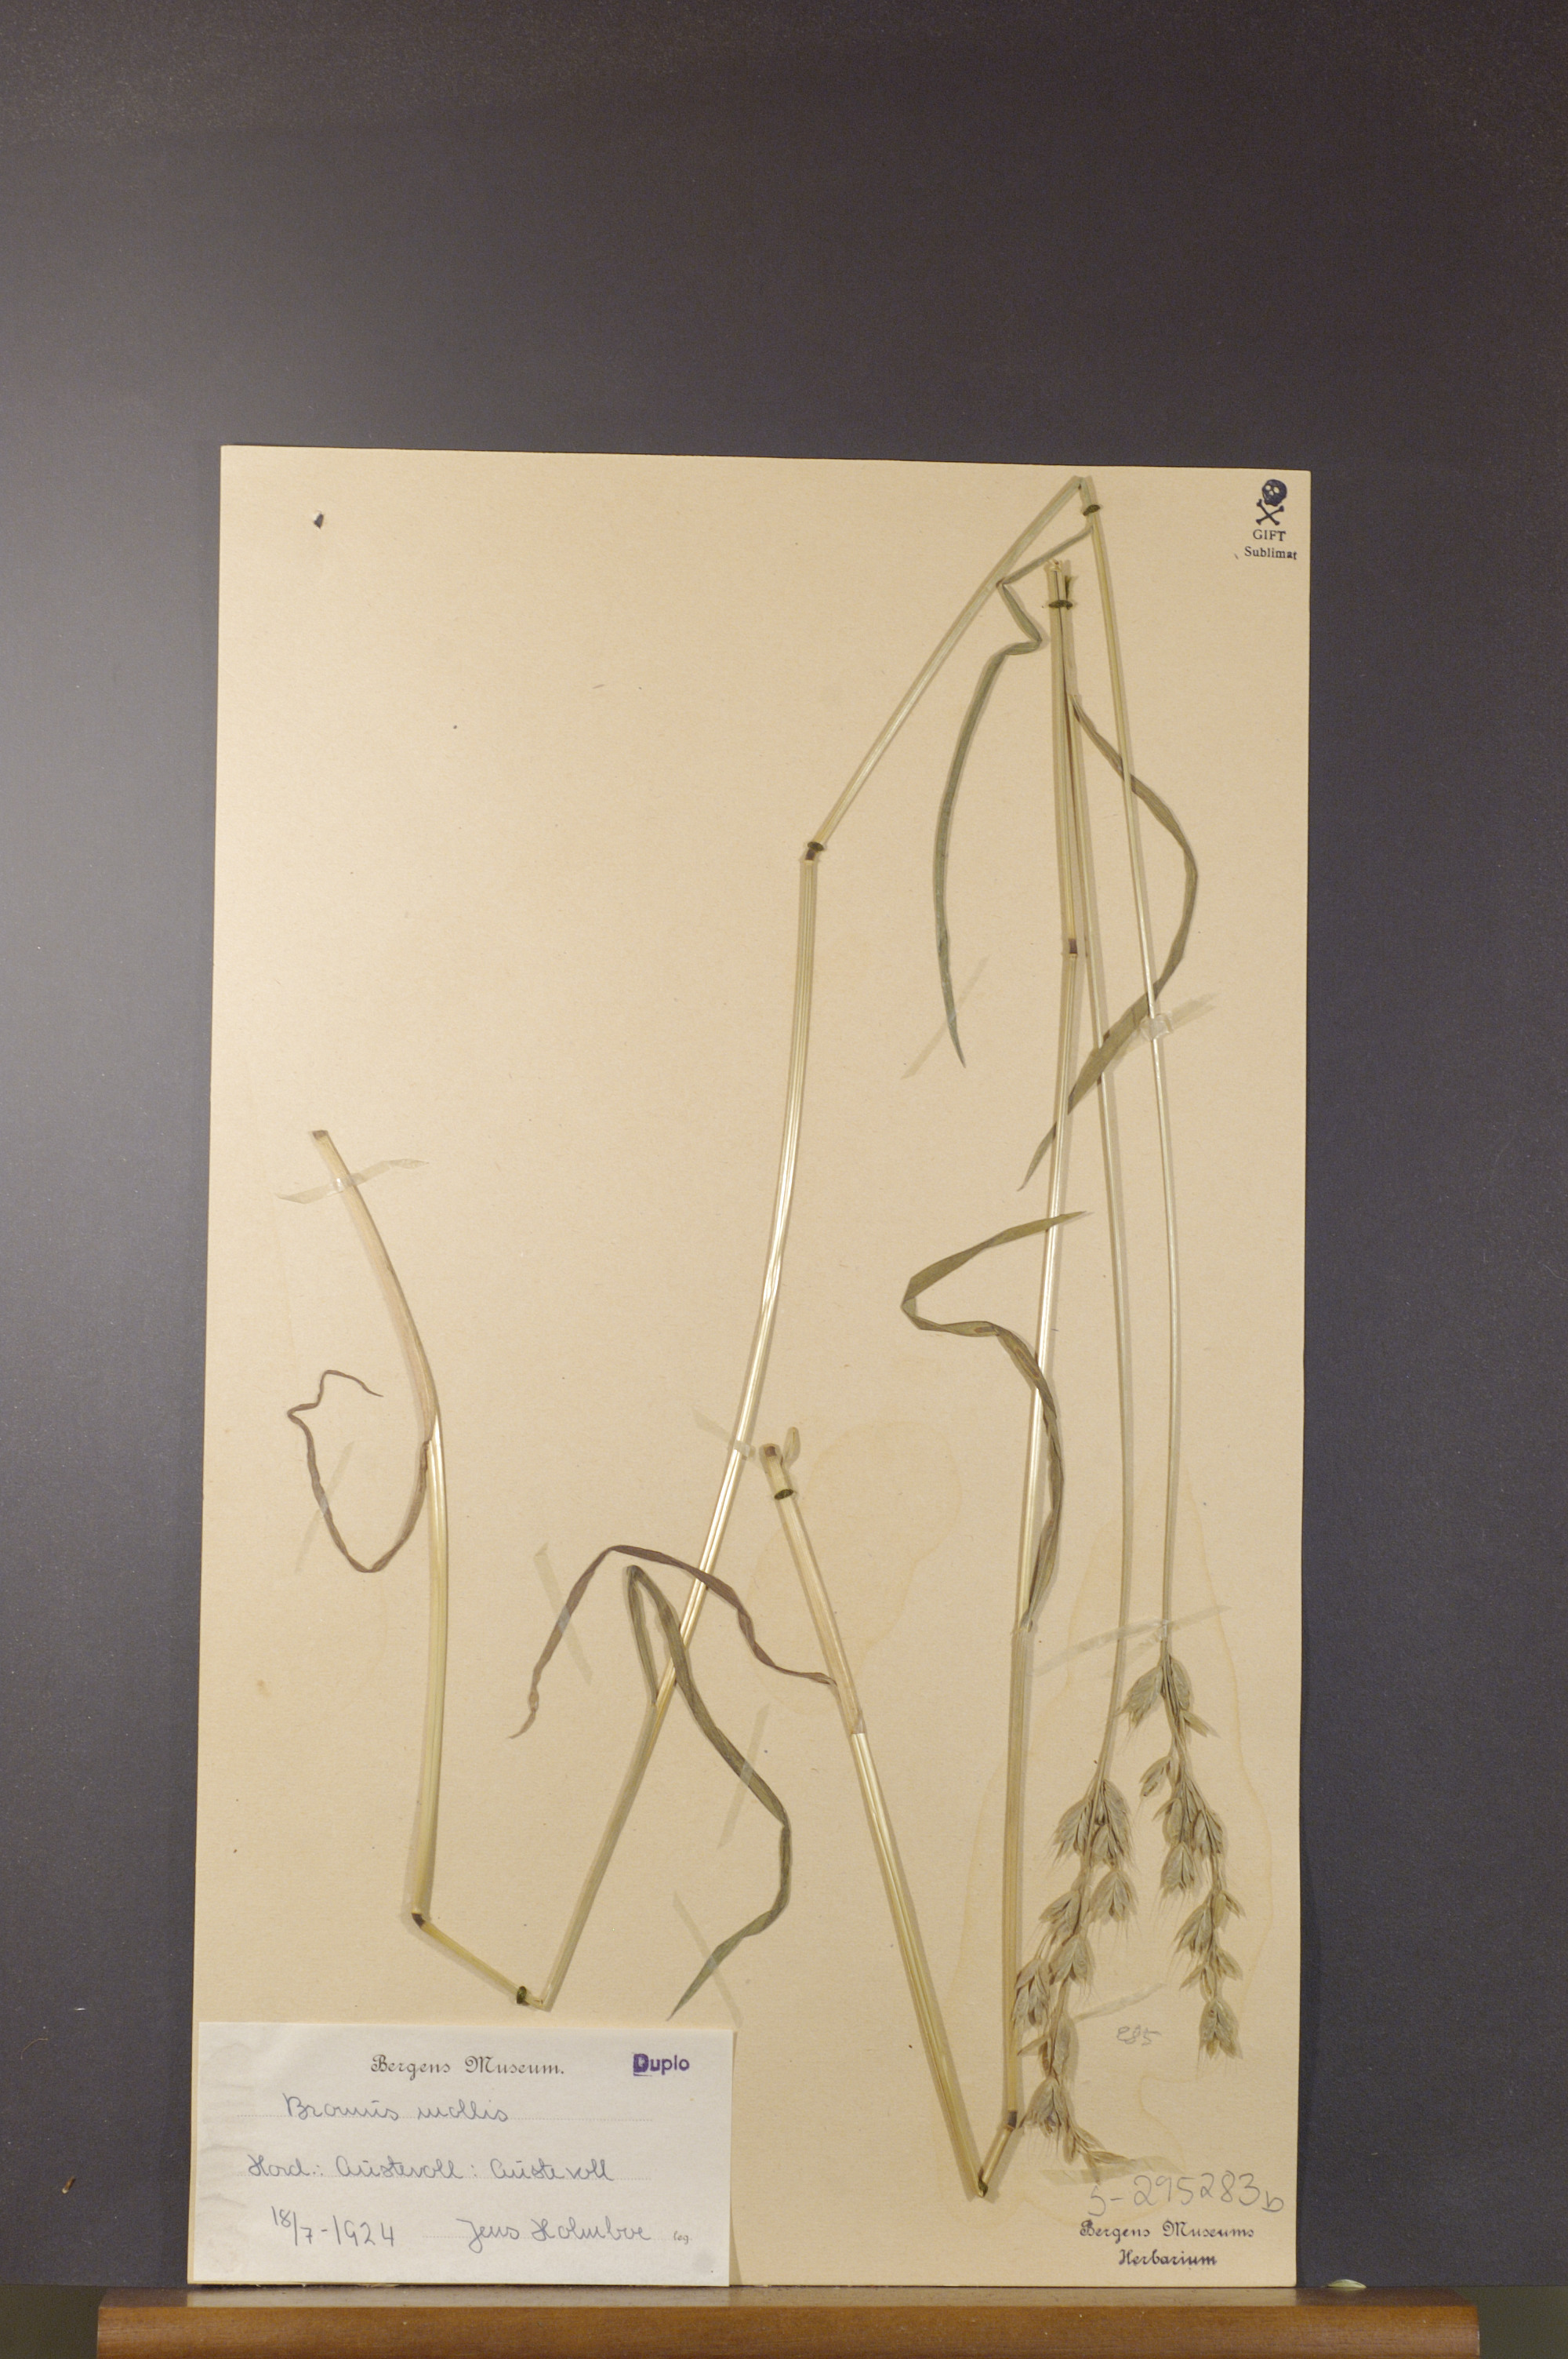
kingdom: Plantae
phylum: Tracheophyta
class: Liliopsida
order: Poales
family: Poaceae
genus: Bromus
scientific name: Bromus hordeaceus
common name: Soft brome
